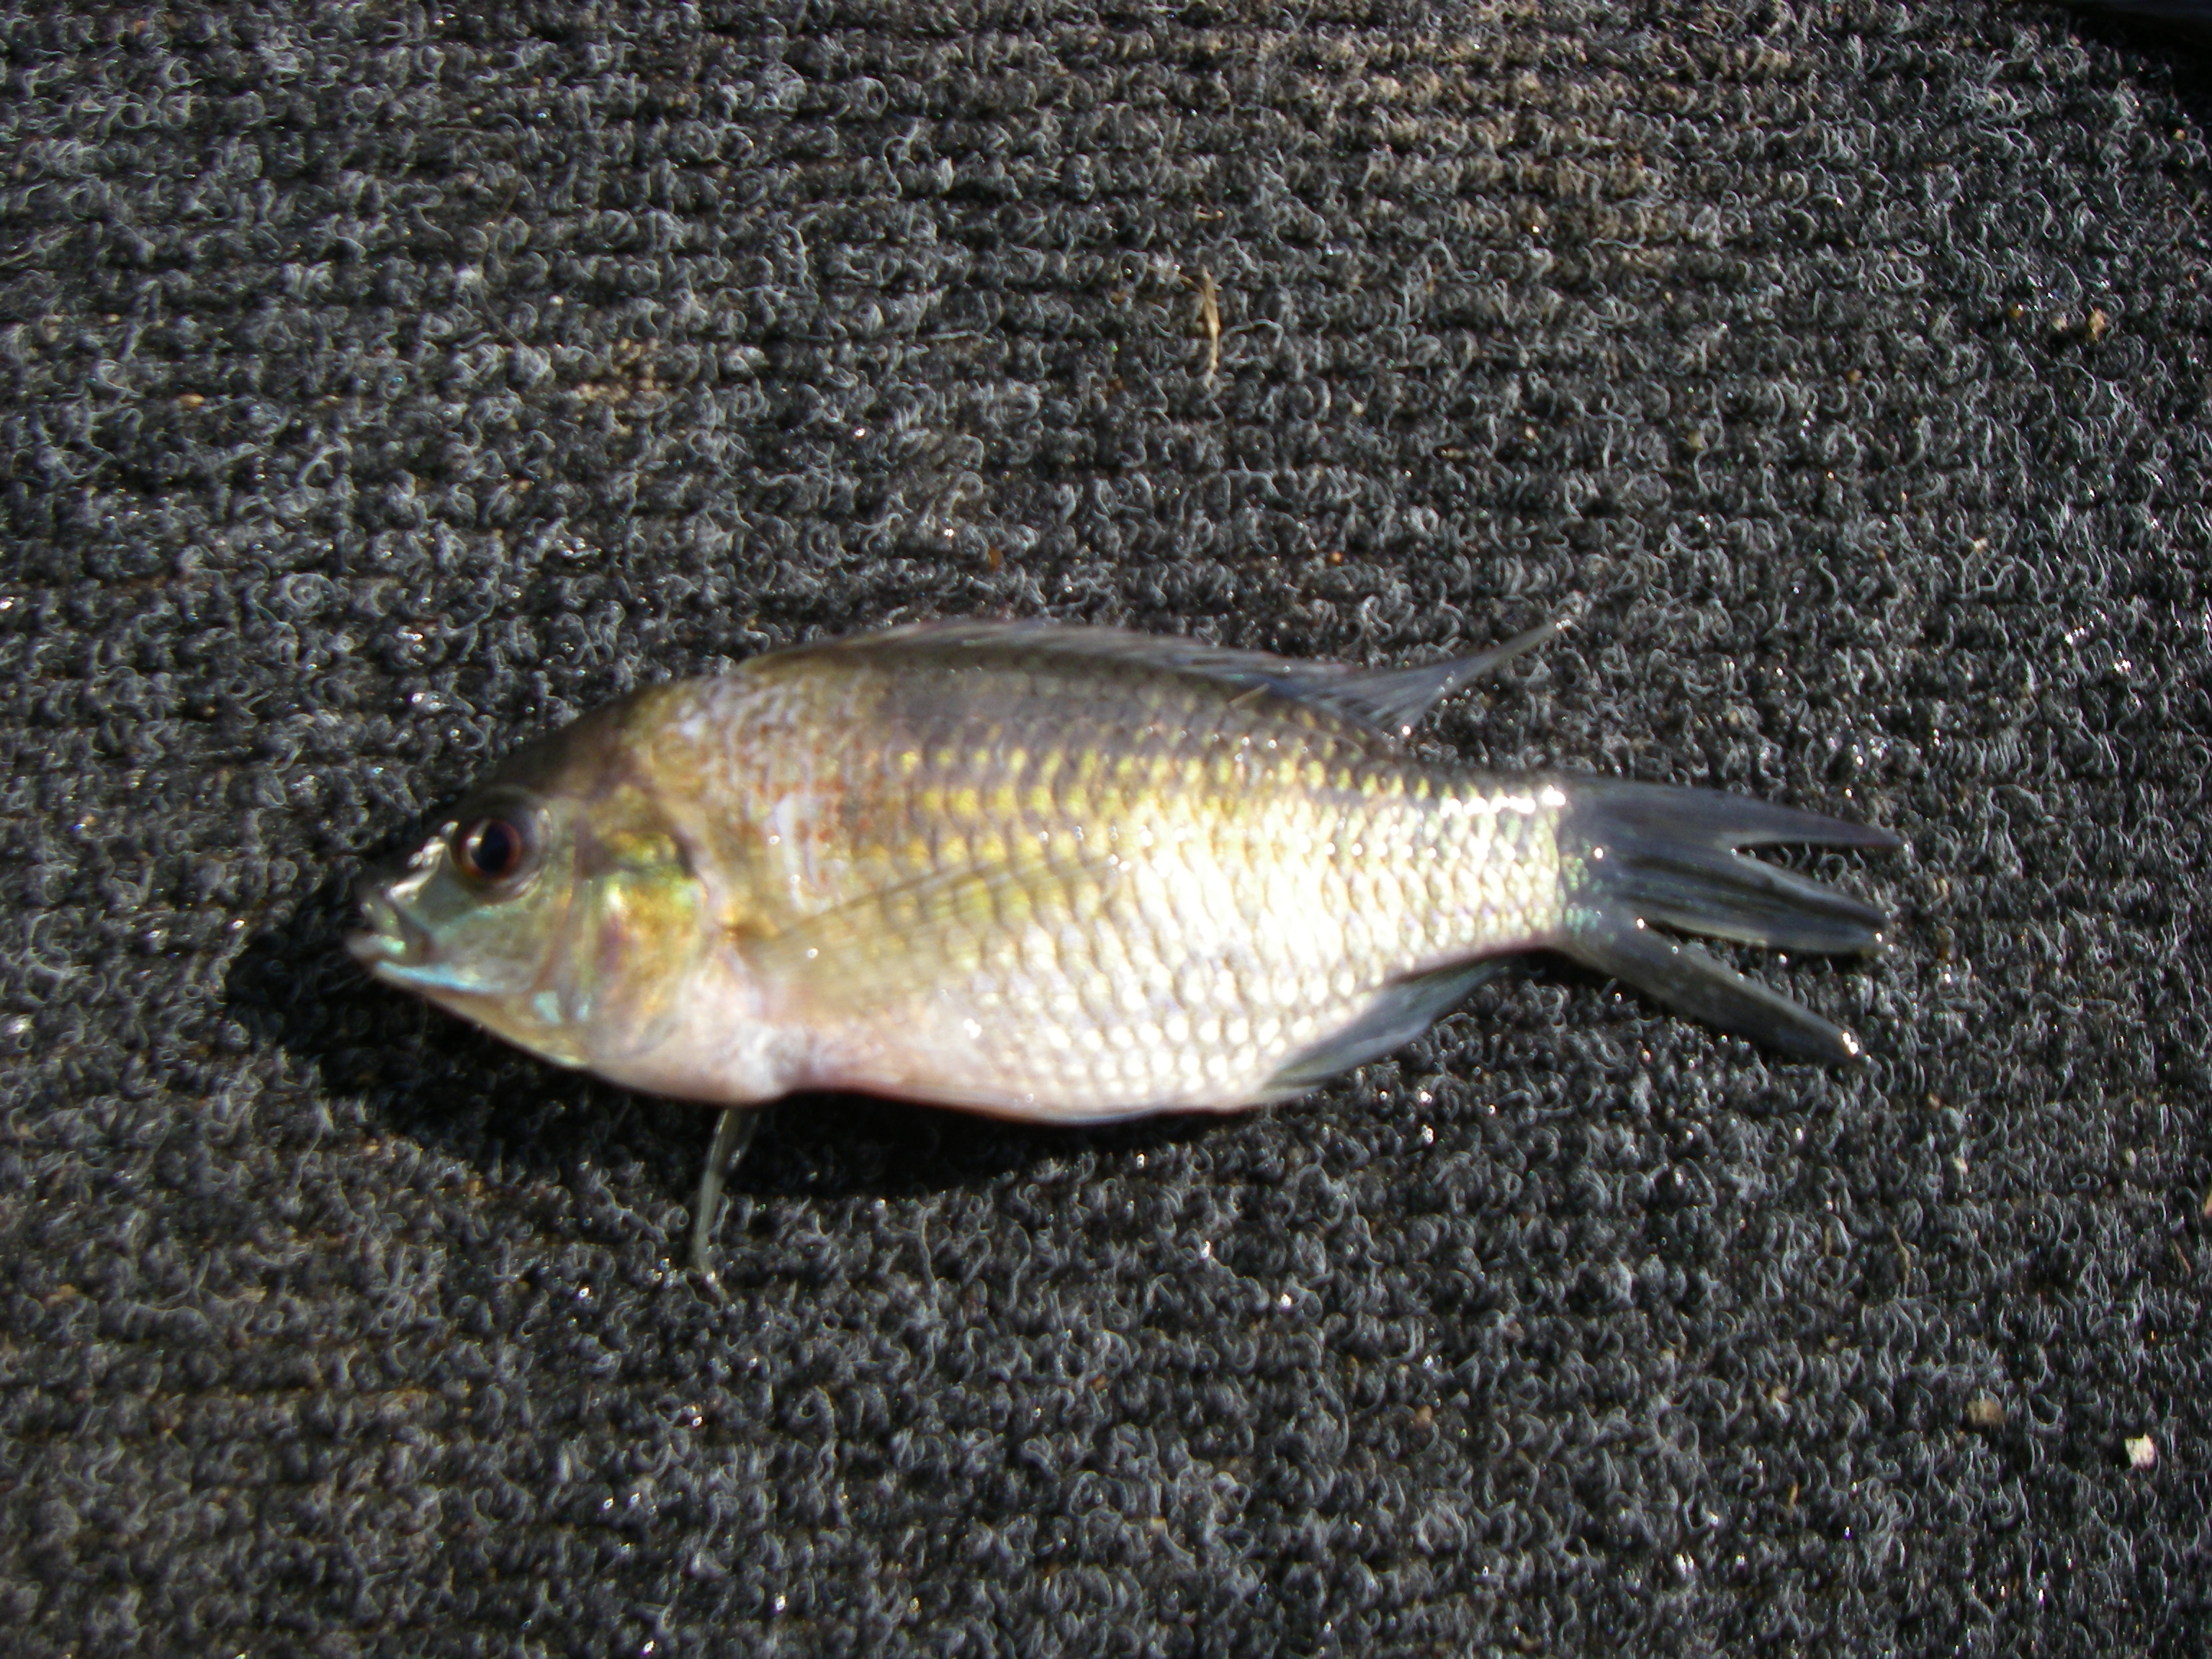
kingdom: Animalia
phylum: Chordata
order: Perciformes
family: Cichlidae
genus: Tilapia
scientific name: Tilapia sparrmanii
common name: Banded tilapia
